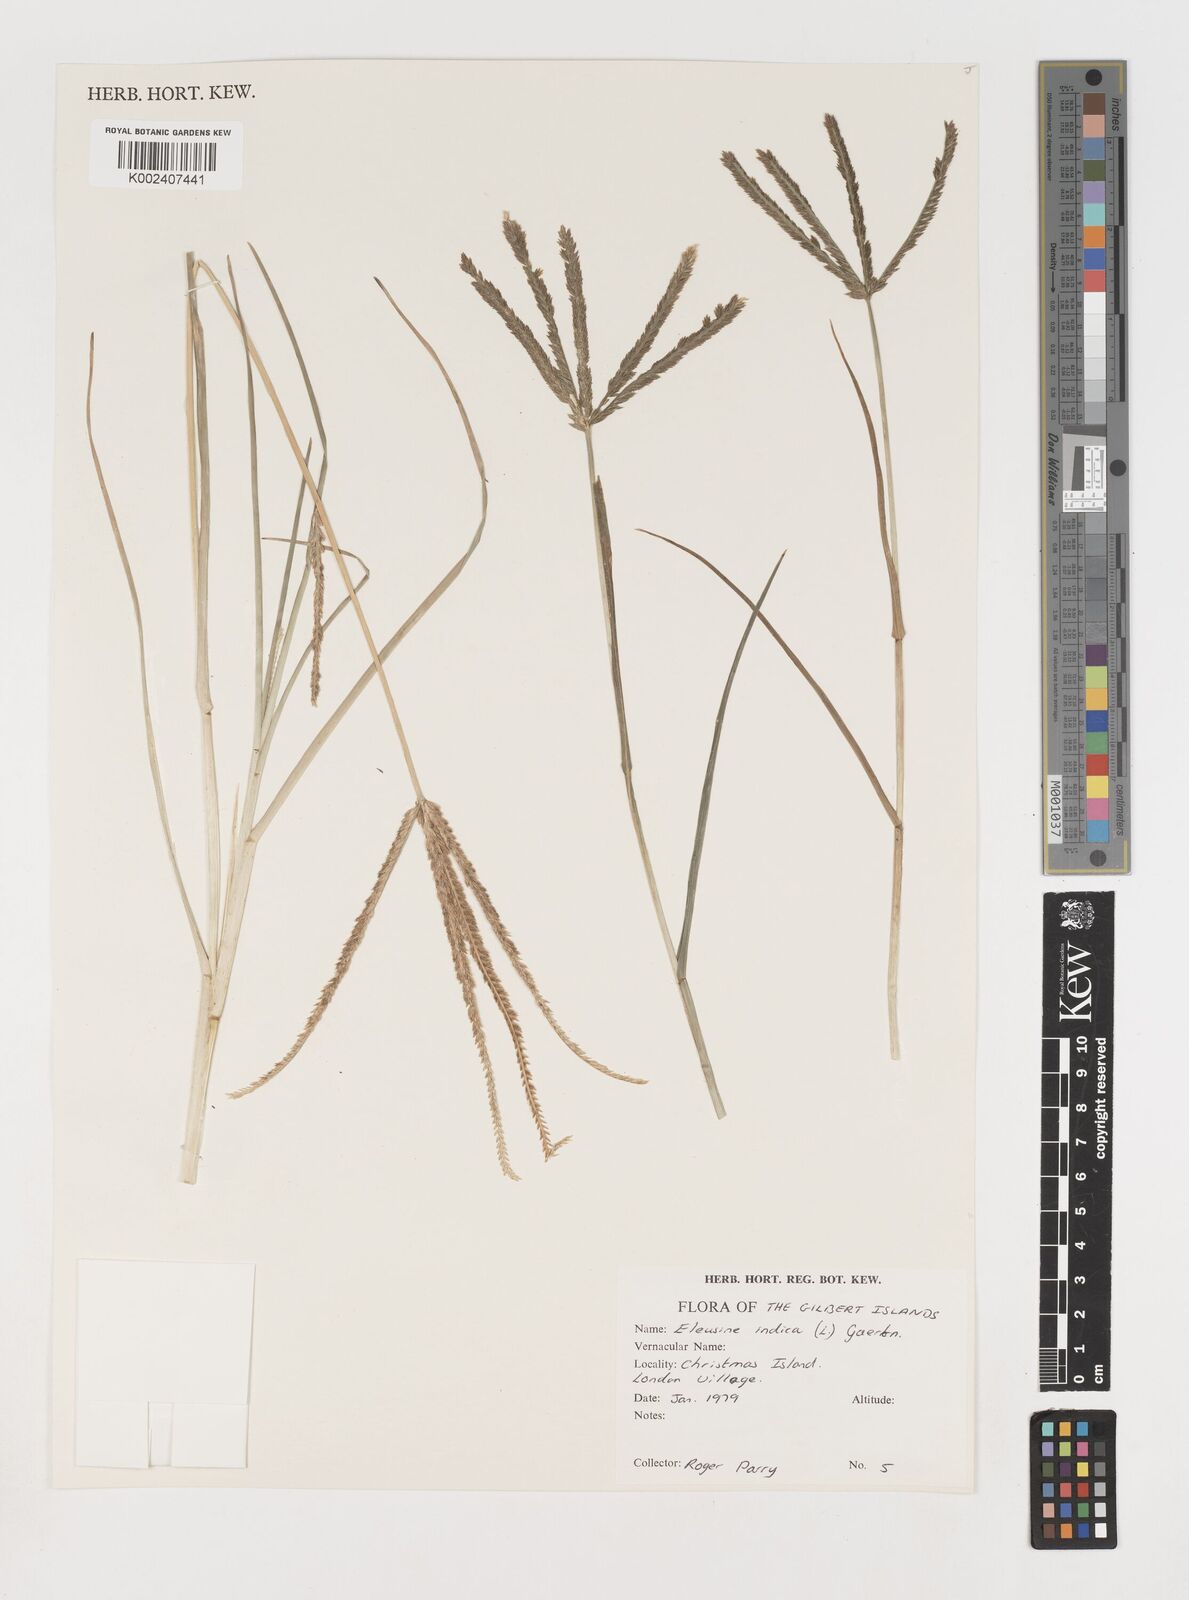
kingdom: Plantae
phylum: Tracheophyta
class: Liliopsida
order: Poales
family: Poaceae
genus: Eleusine
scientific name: Eleusine indica
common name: Yard-grass
